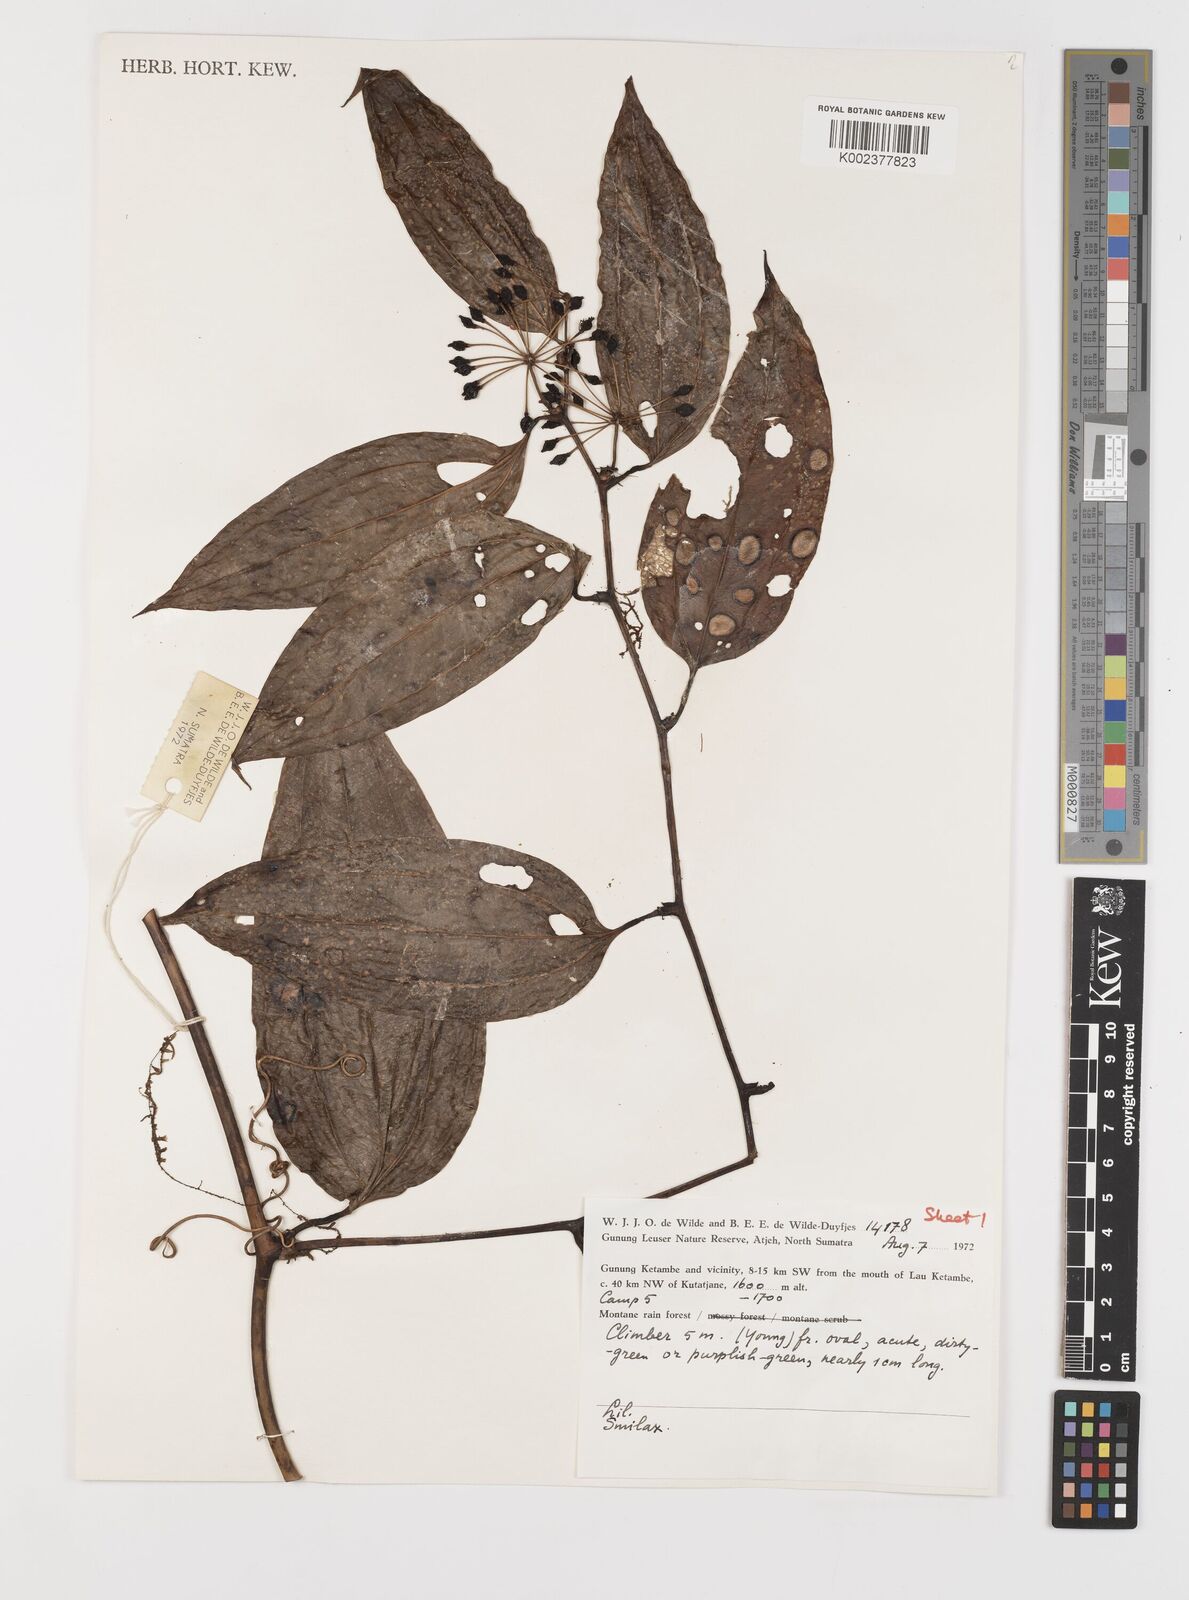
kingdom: Plantae
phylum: Tracheophyta
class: Liliopsida
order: Liliales
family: Smilacaceae
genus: Smilax
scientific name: Smilax
